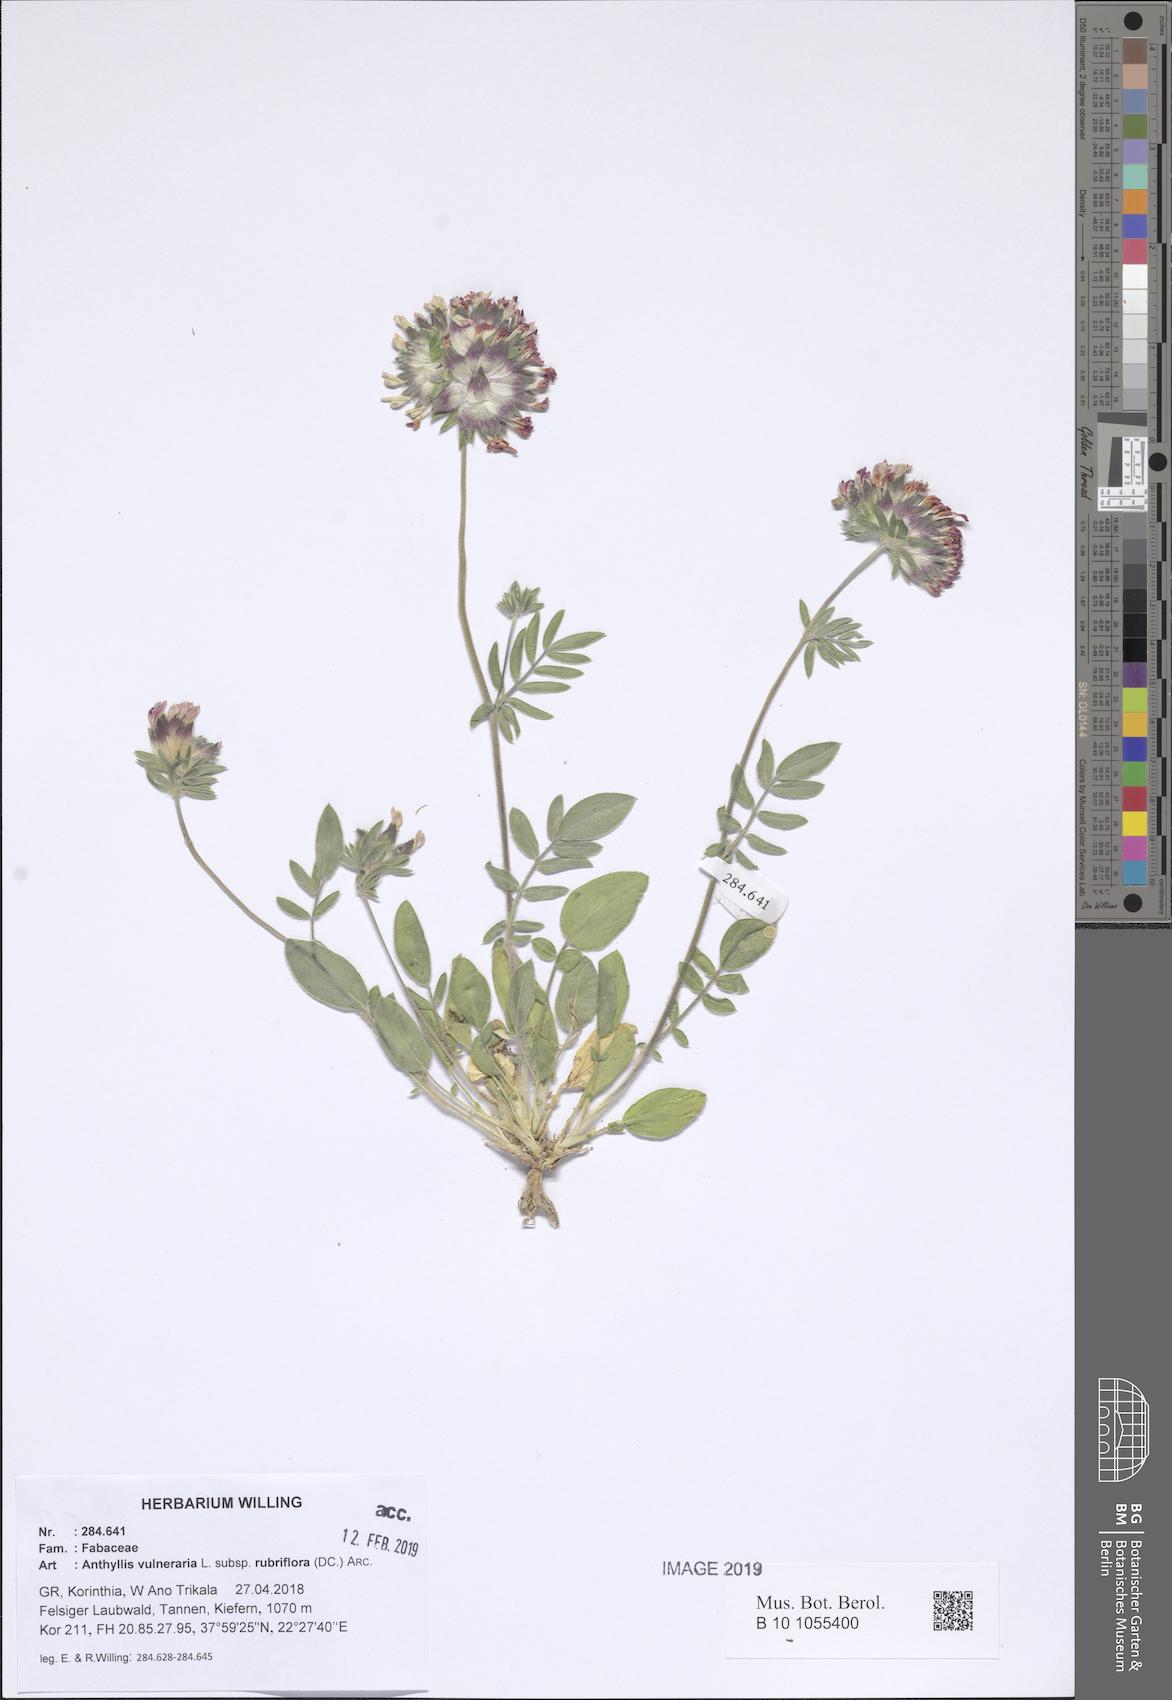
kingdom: Plantae
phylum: Tracheophyta
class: Magnoliopsida
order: Fabales
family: Fabaceae
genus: Anthyllis
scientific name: Anthyllis vulneraria
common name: Kidney vetch
